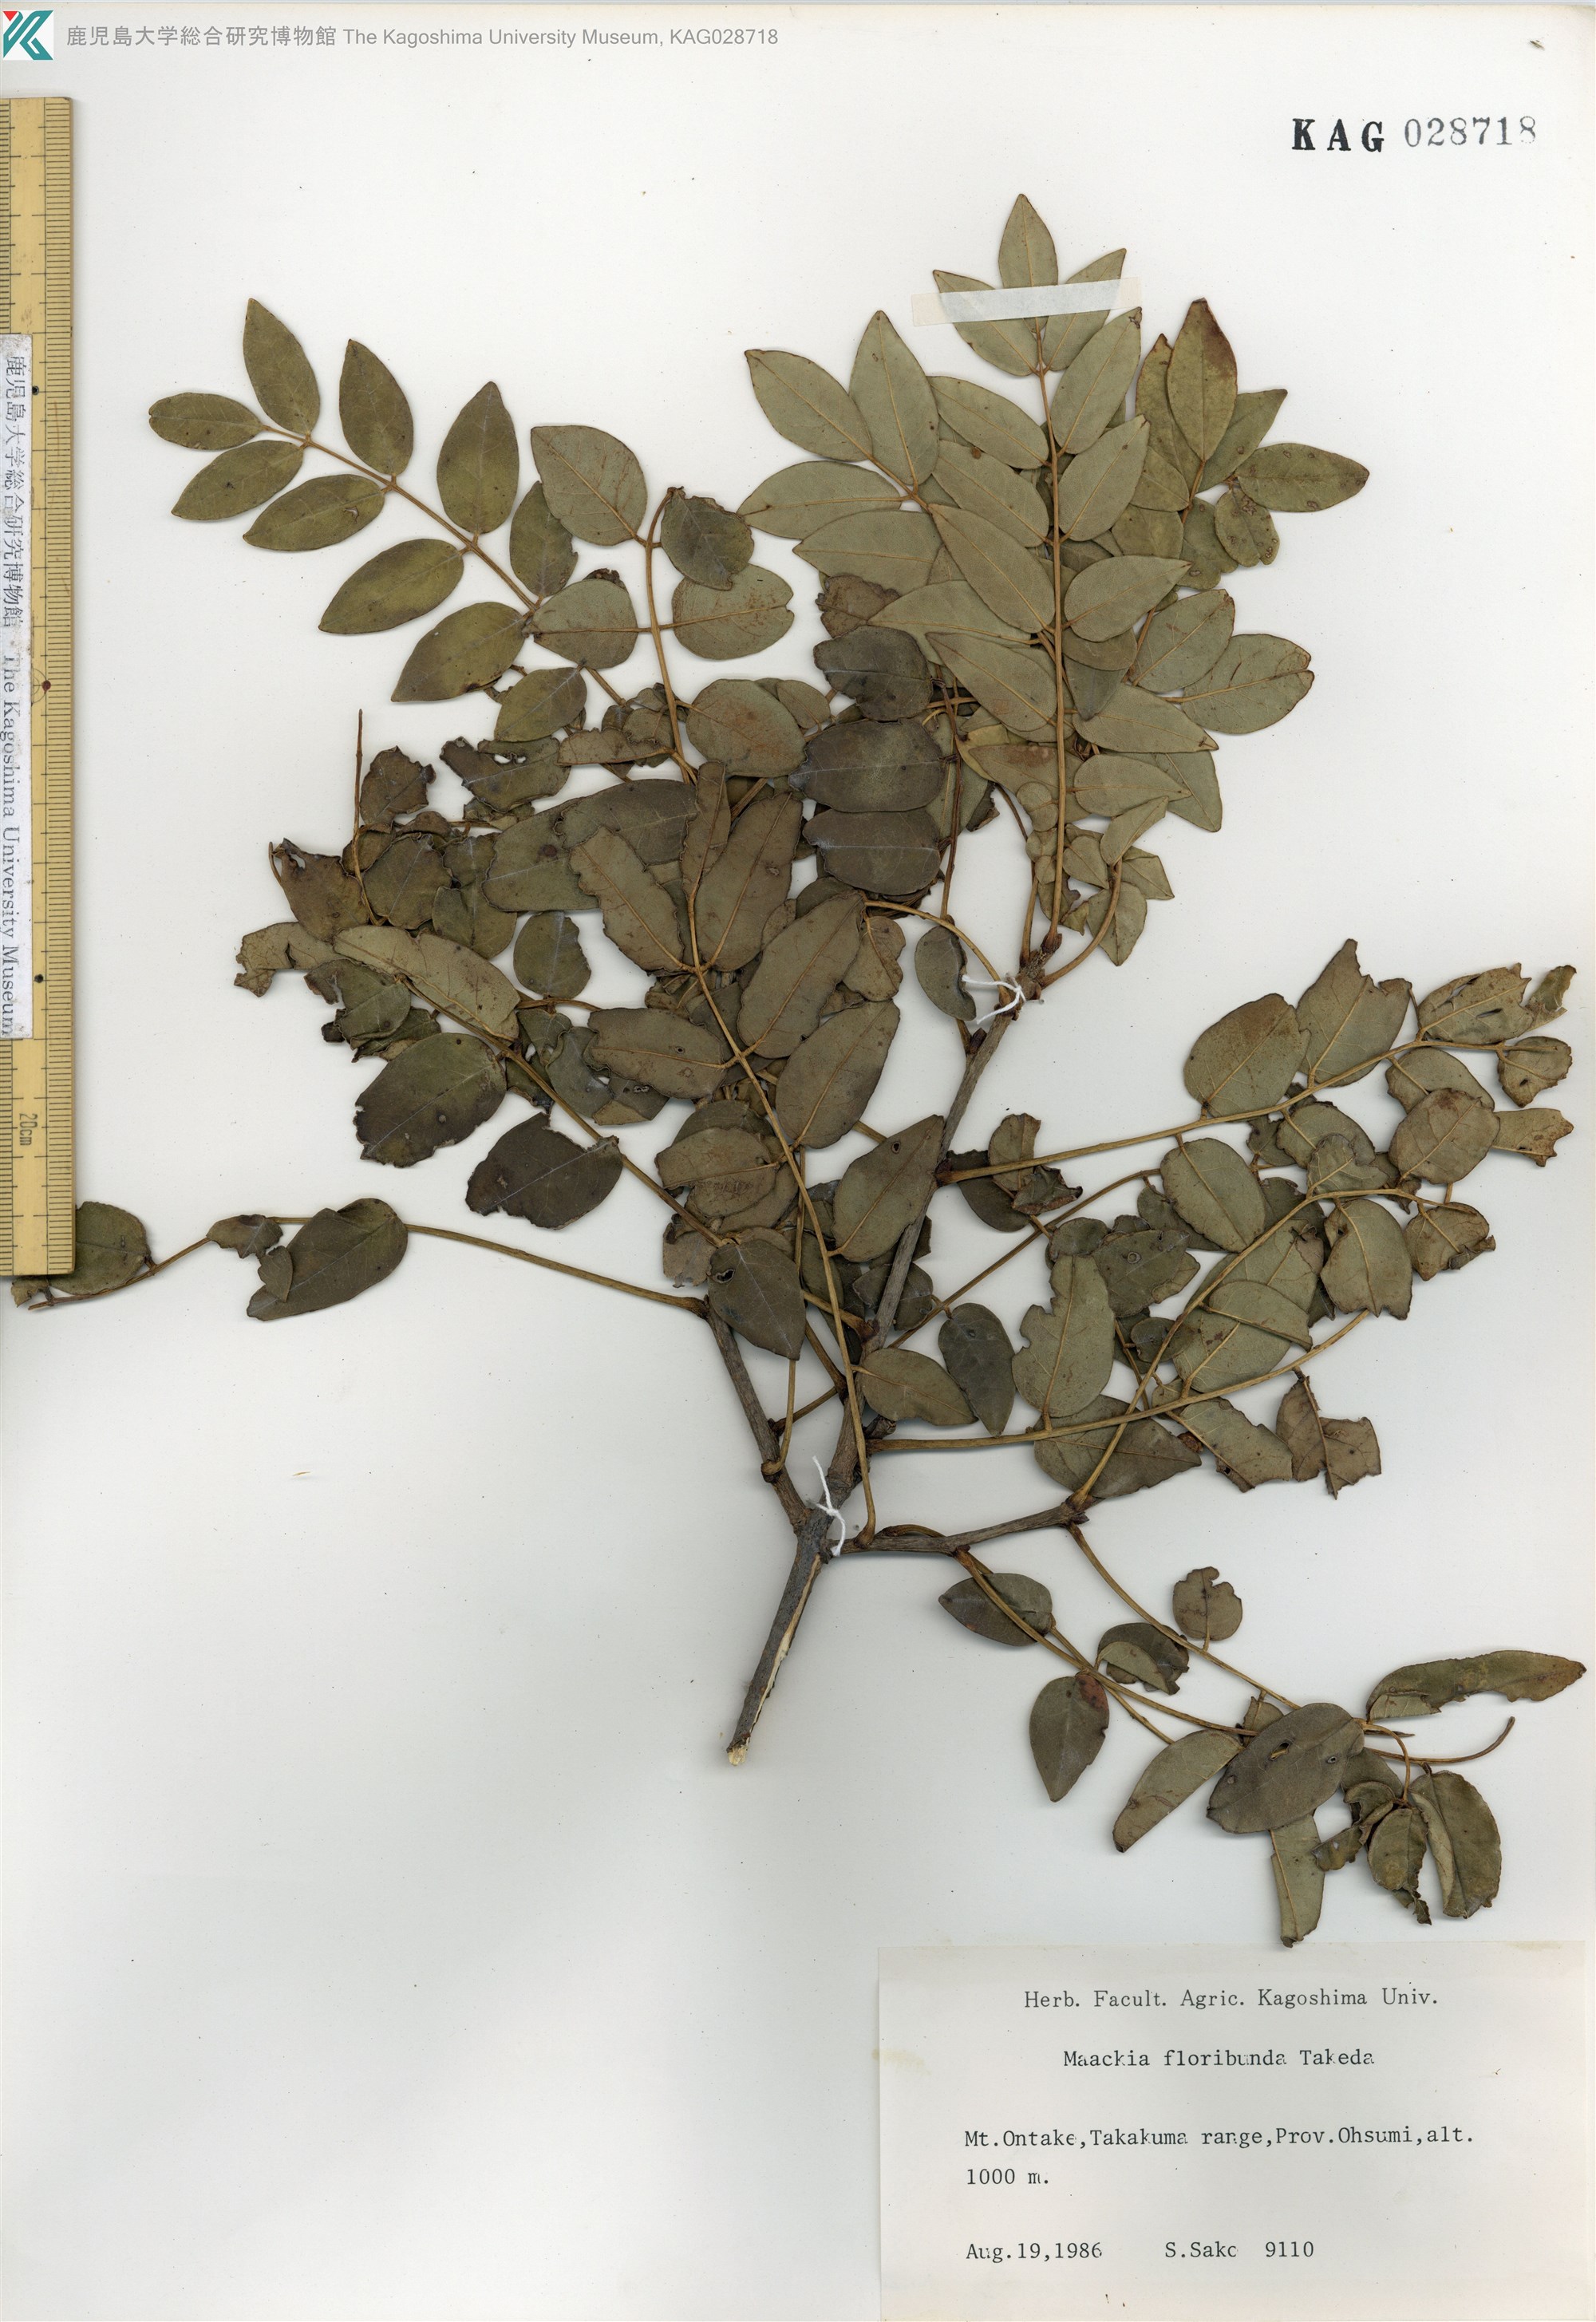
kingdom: Plantae
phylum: Tracheophyta
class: Magnoliopsida
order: Fabales
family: Fabaceae
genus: Maackia
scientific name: Maackia amurensis
